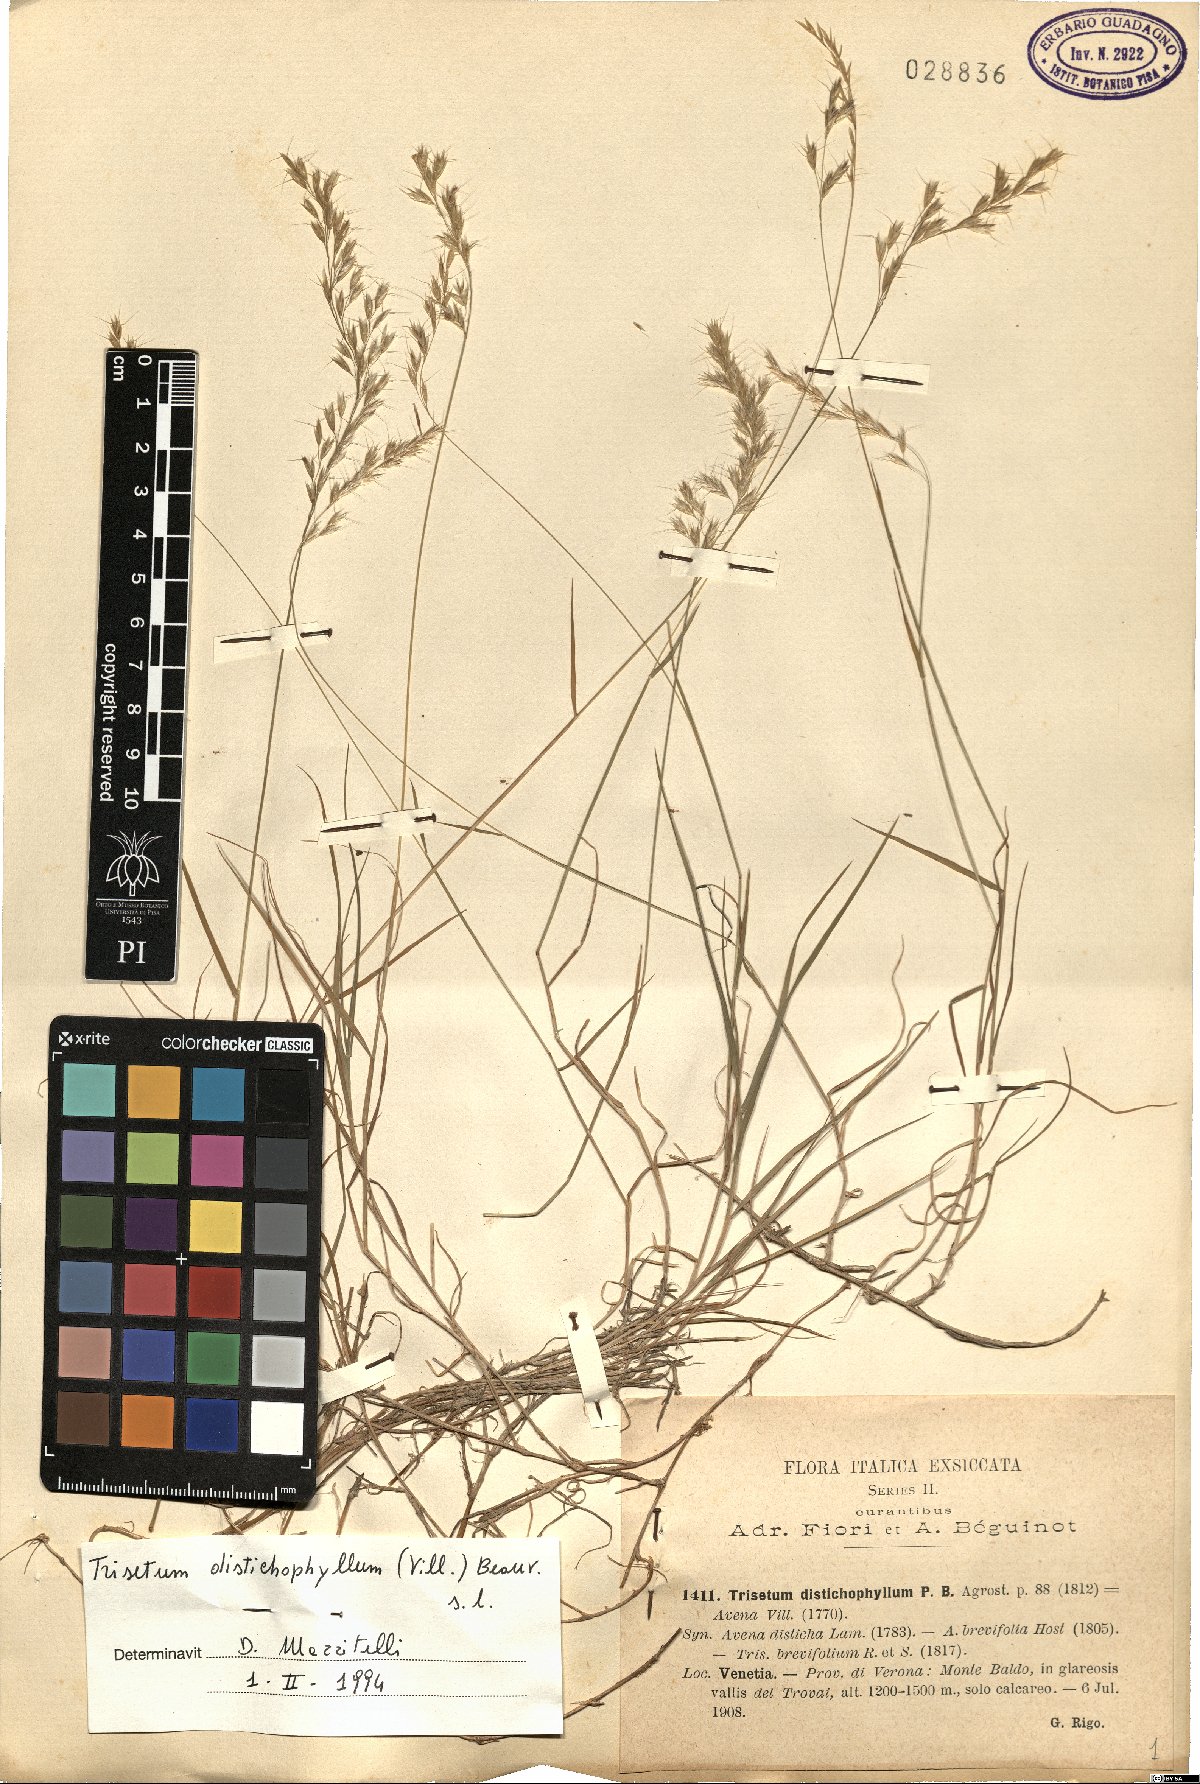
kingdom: Plantae
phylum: Tracheophyta
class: Liliopsida
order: Poales
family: Poaceae
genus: Acrospelion
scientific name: Acrospelion distichophyllum
